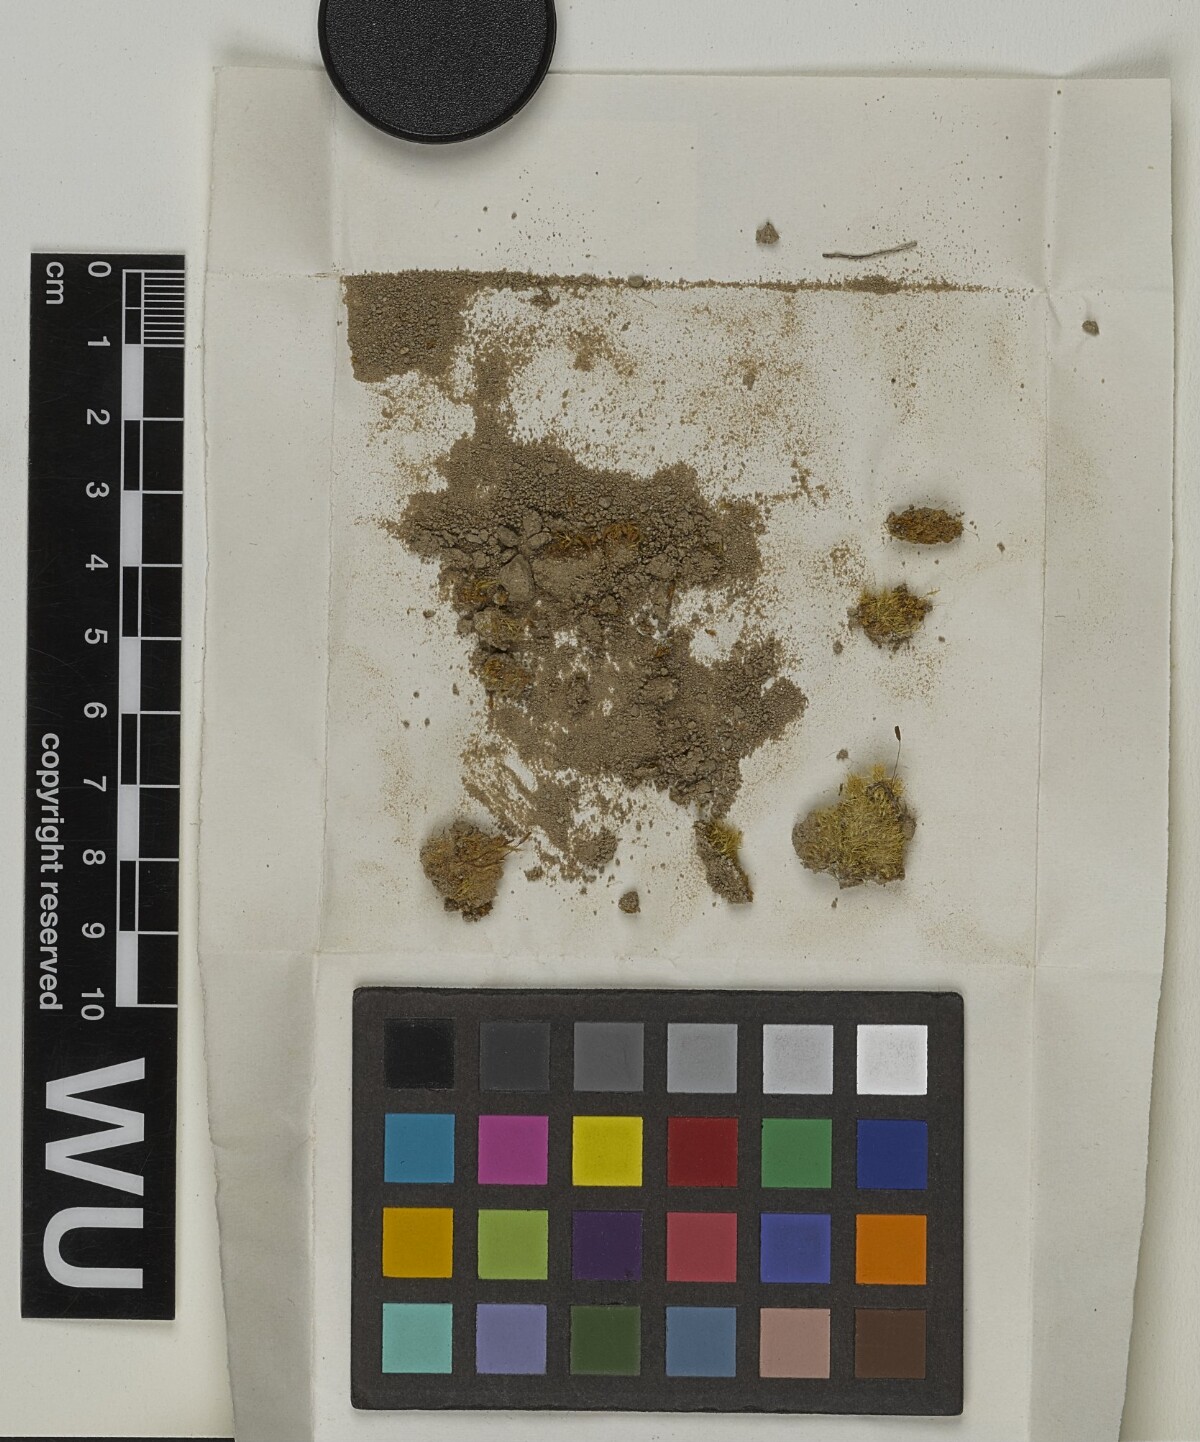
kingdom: Plantae
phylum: Bryophyta
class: Bryopsida
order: Pottiales
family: Pottiaceae
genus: Hennediella
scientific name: Hennediella heimii
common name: Heim's pottia
